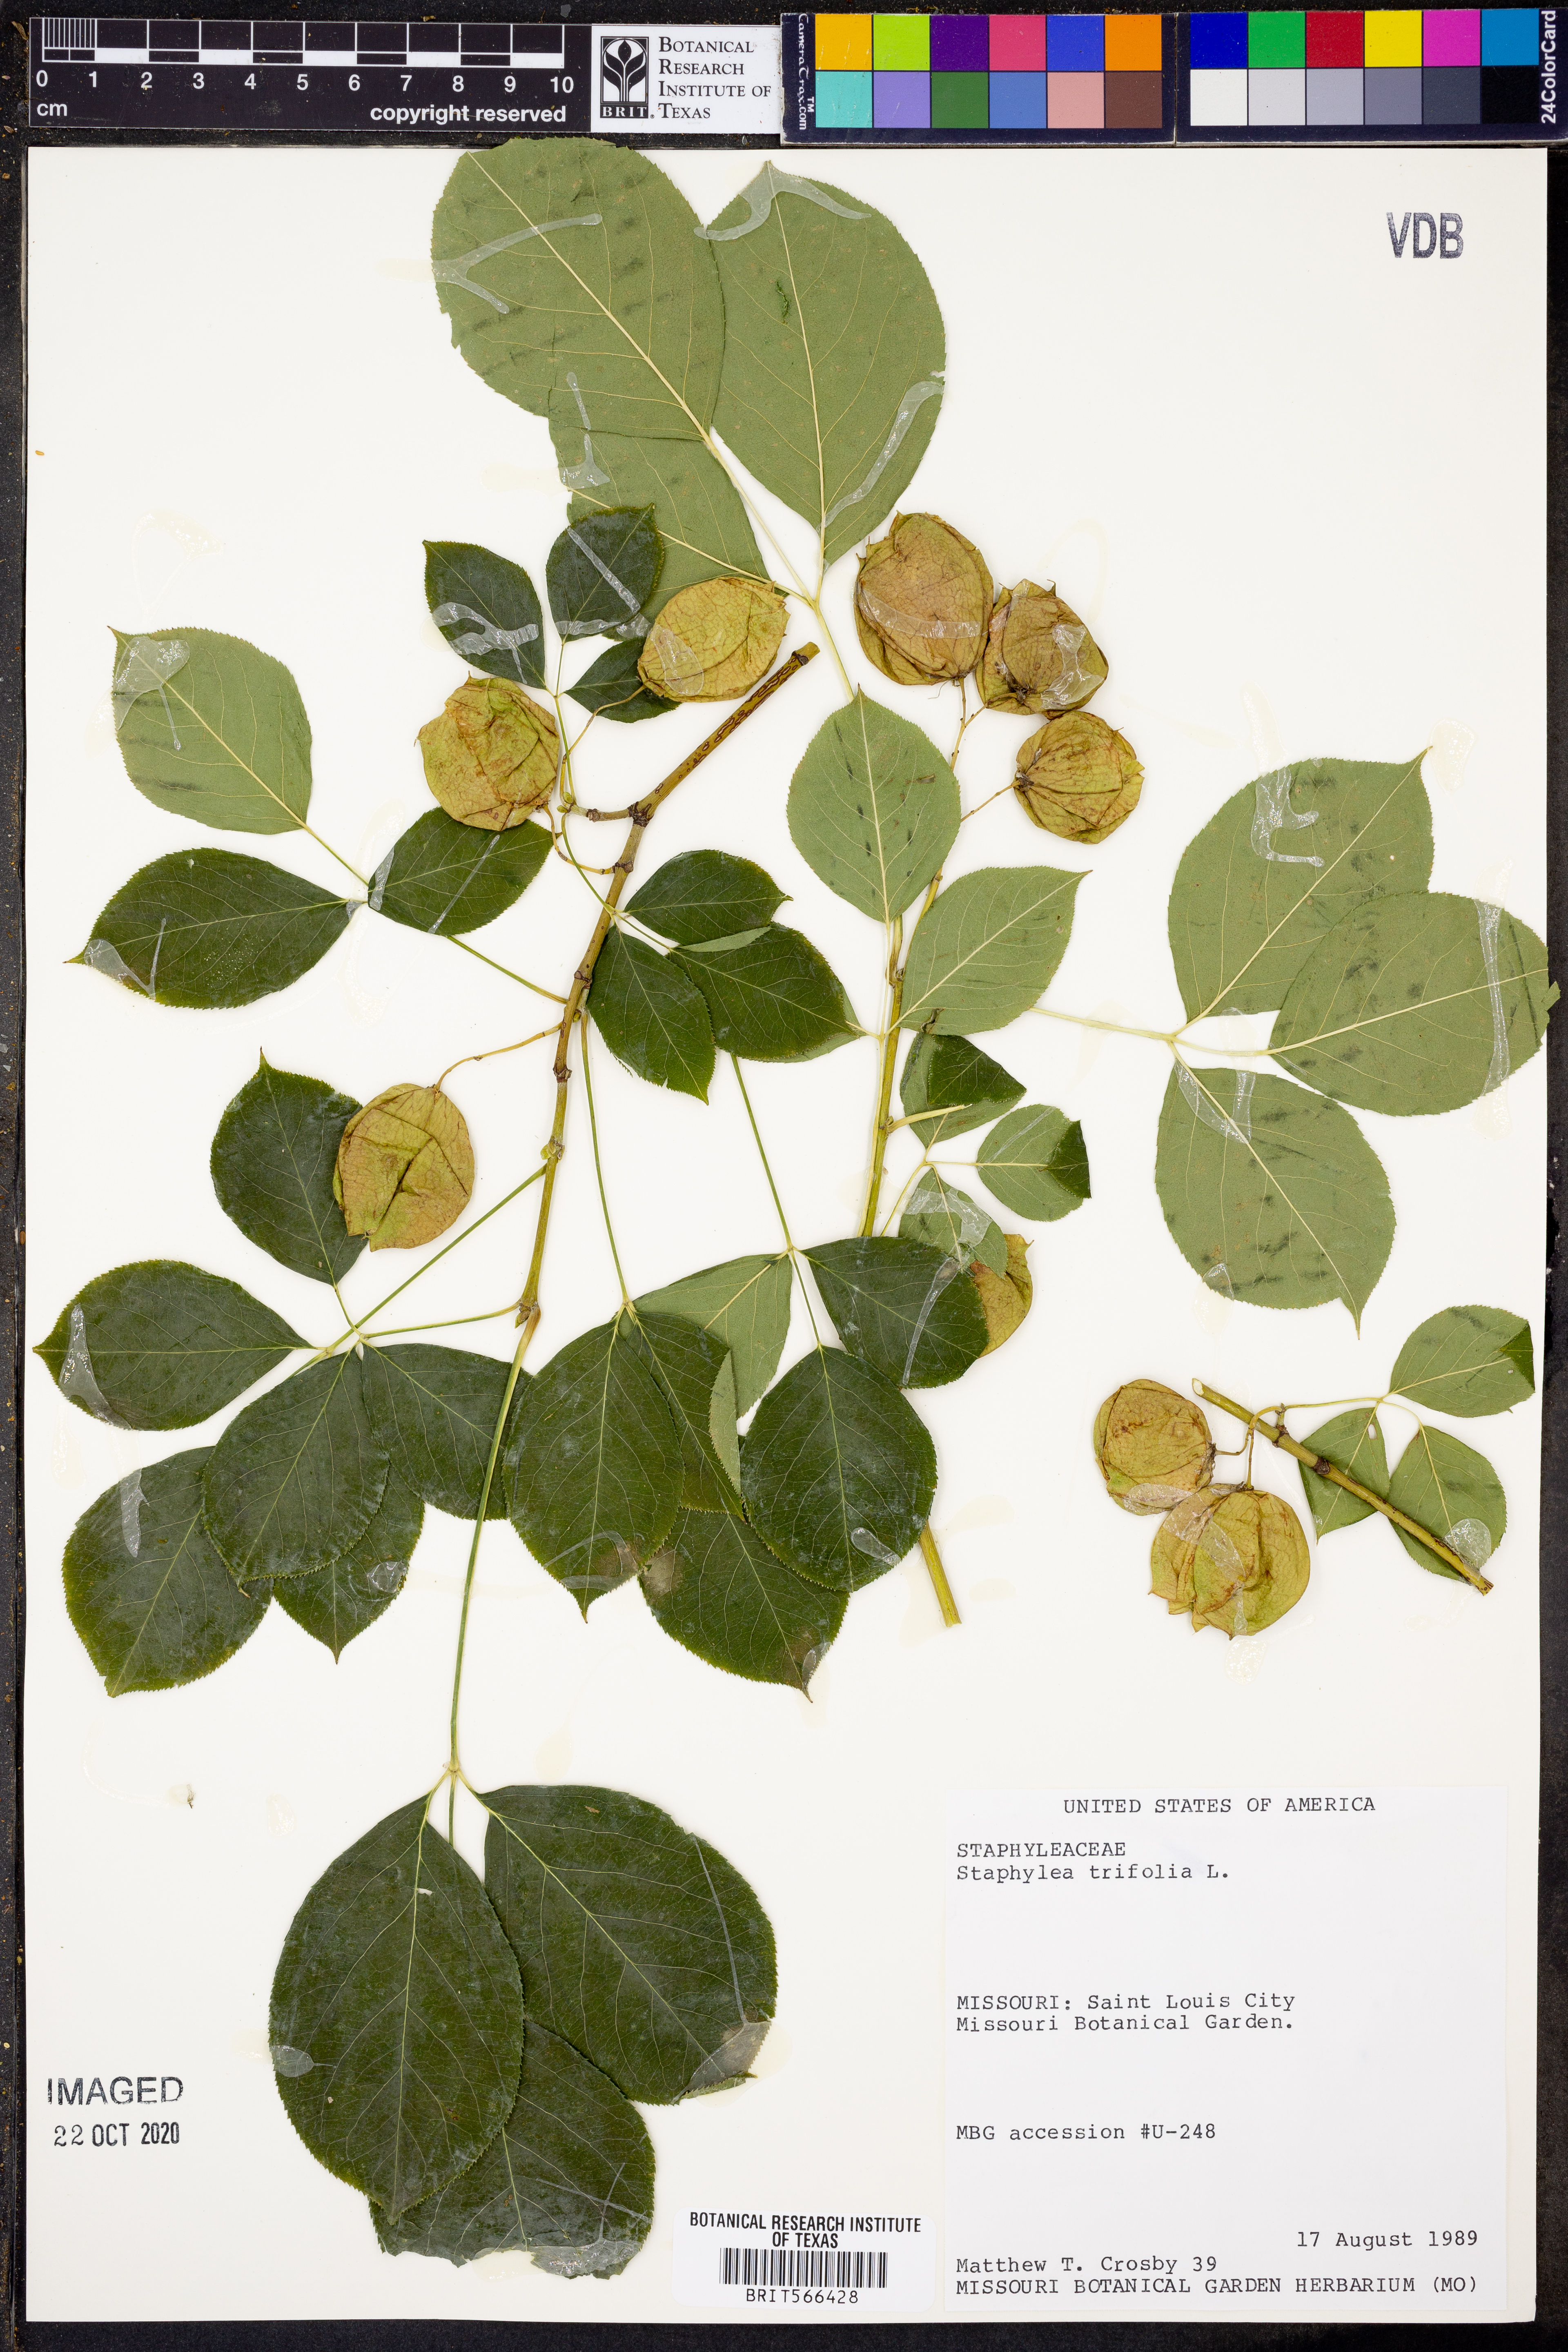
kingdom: Plantae
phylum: Tracheophyta
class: Magnoliopsida
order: Crossosomatales
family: Staphyleaceae
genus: Staphylea
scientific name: Staphylea trifolia
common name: American bladdernut
